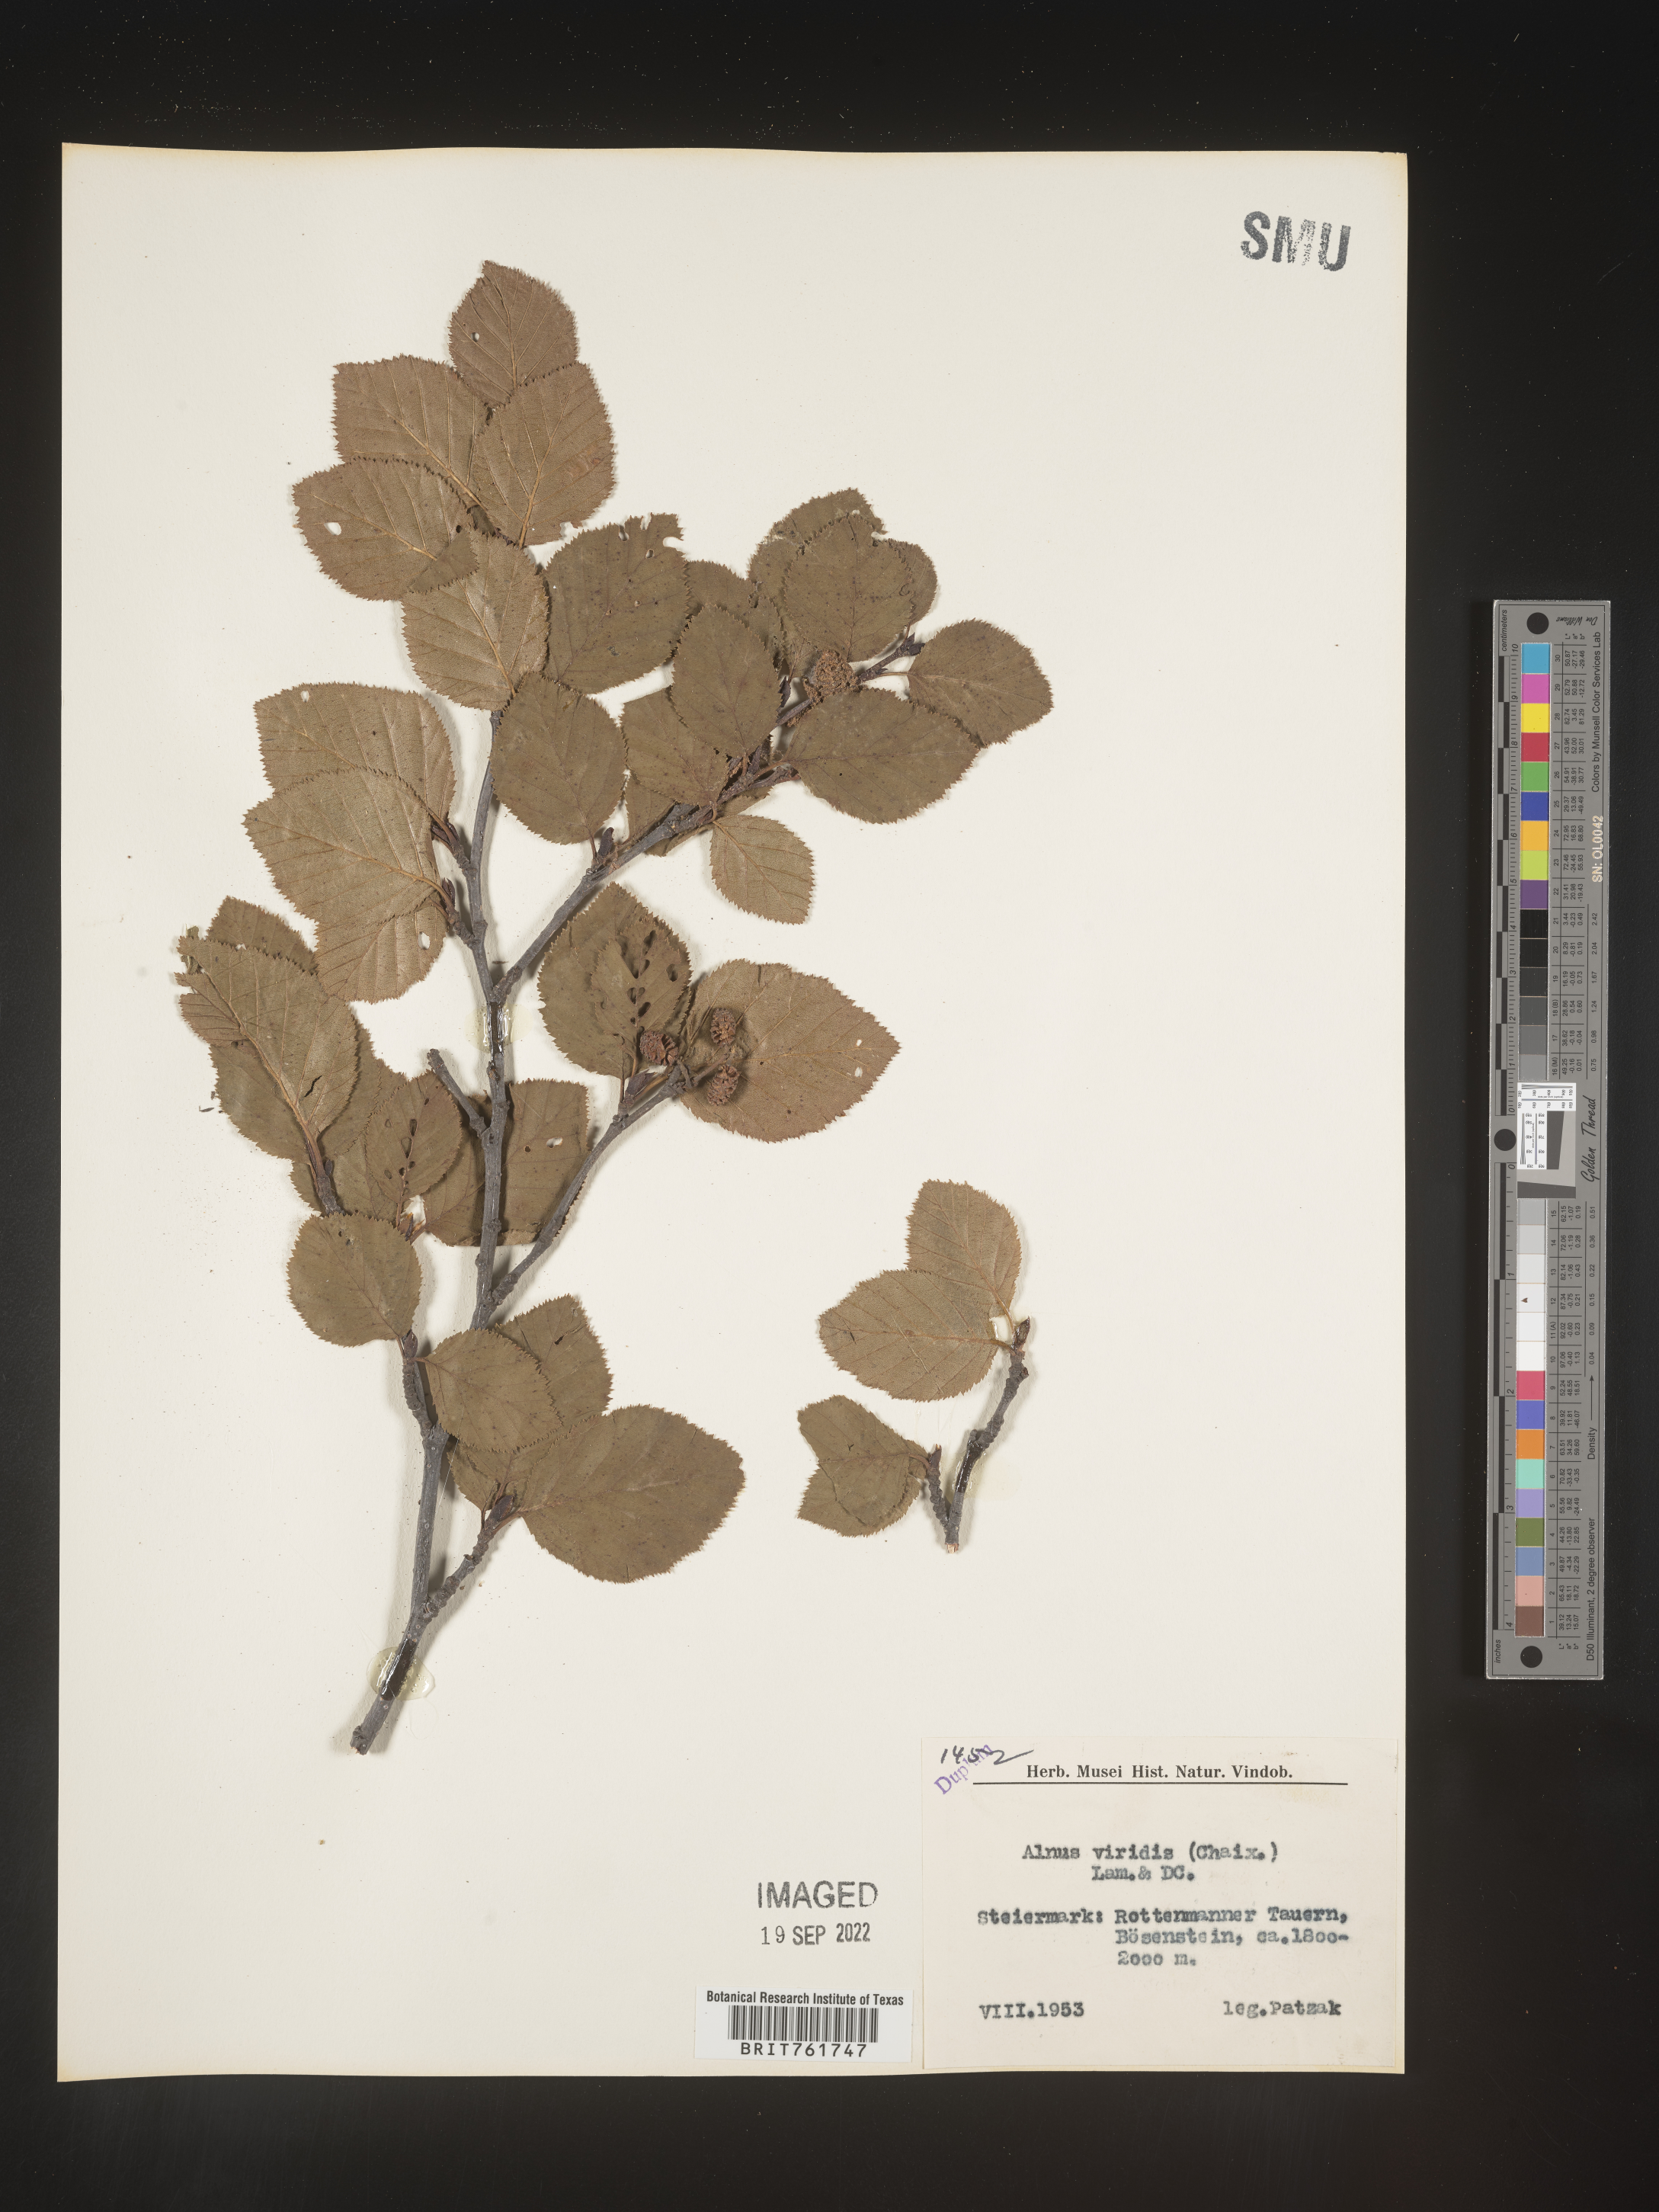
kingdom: Plantae
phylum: Tracheophyta
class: Magnoliopsida
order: Fagales
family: Betulaceae
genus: Alnus
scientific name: Alnus
